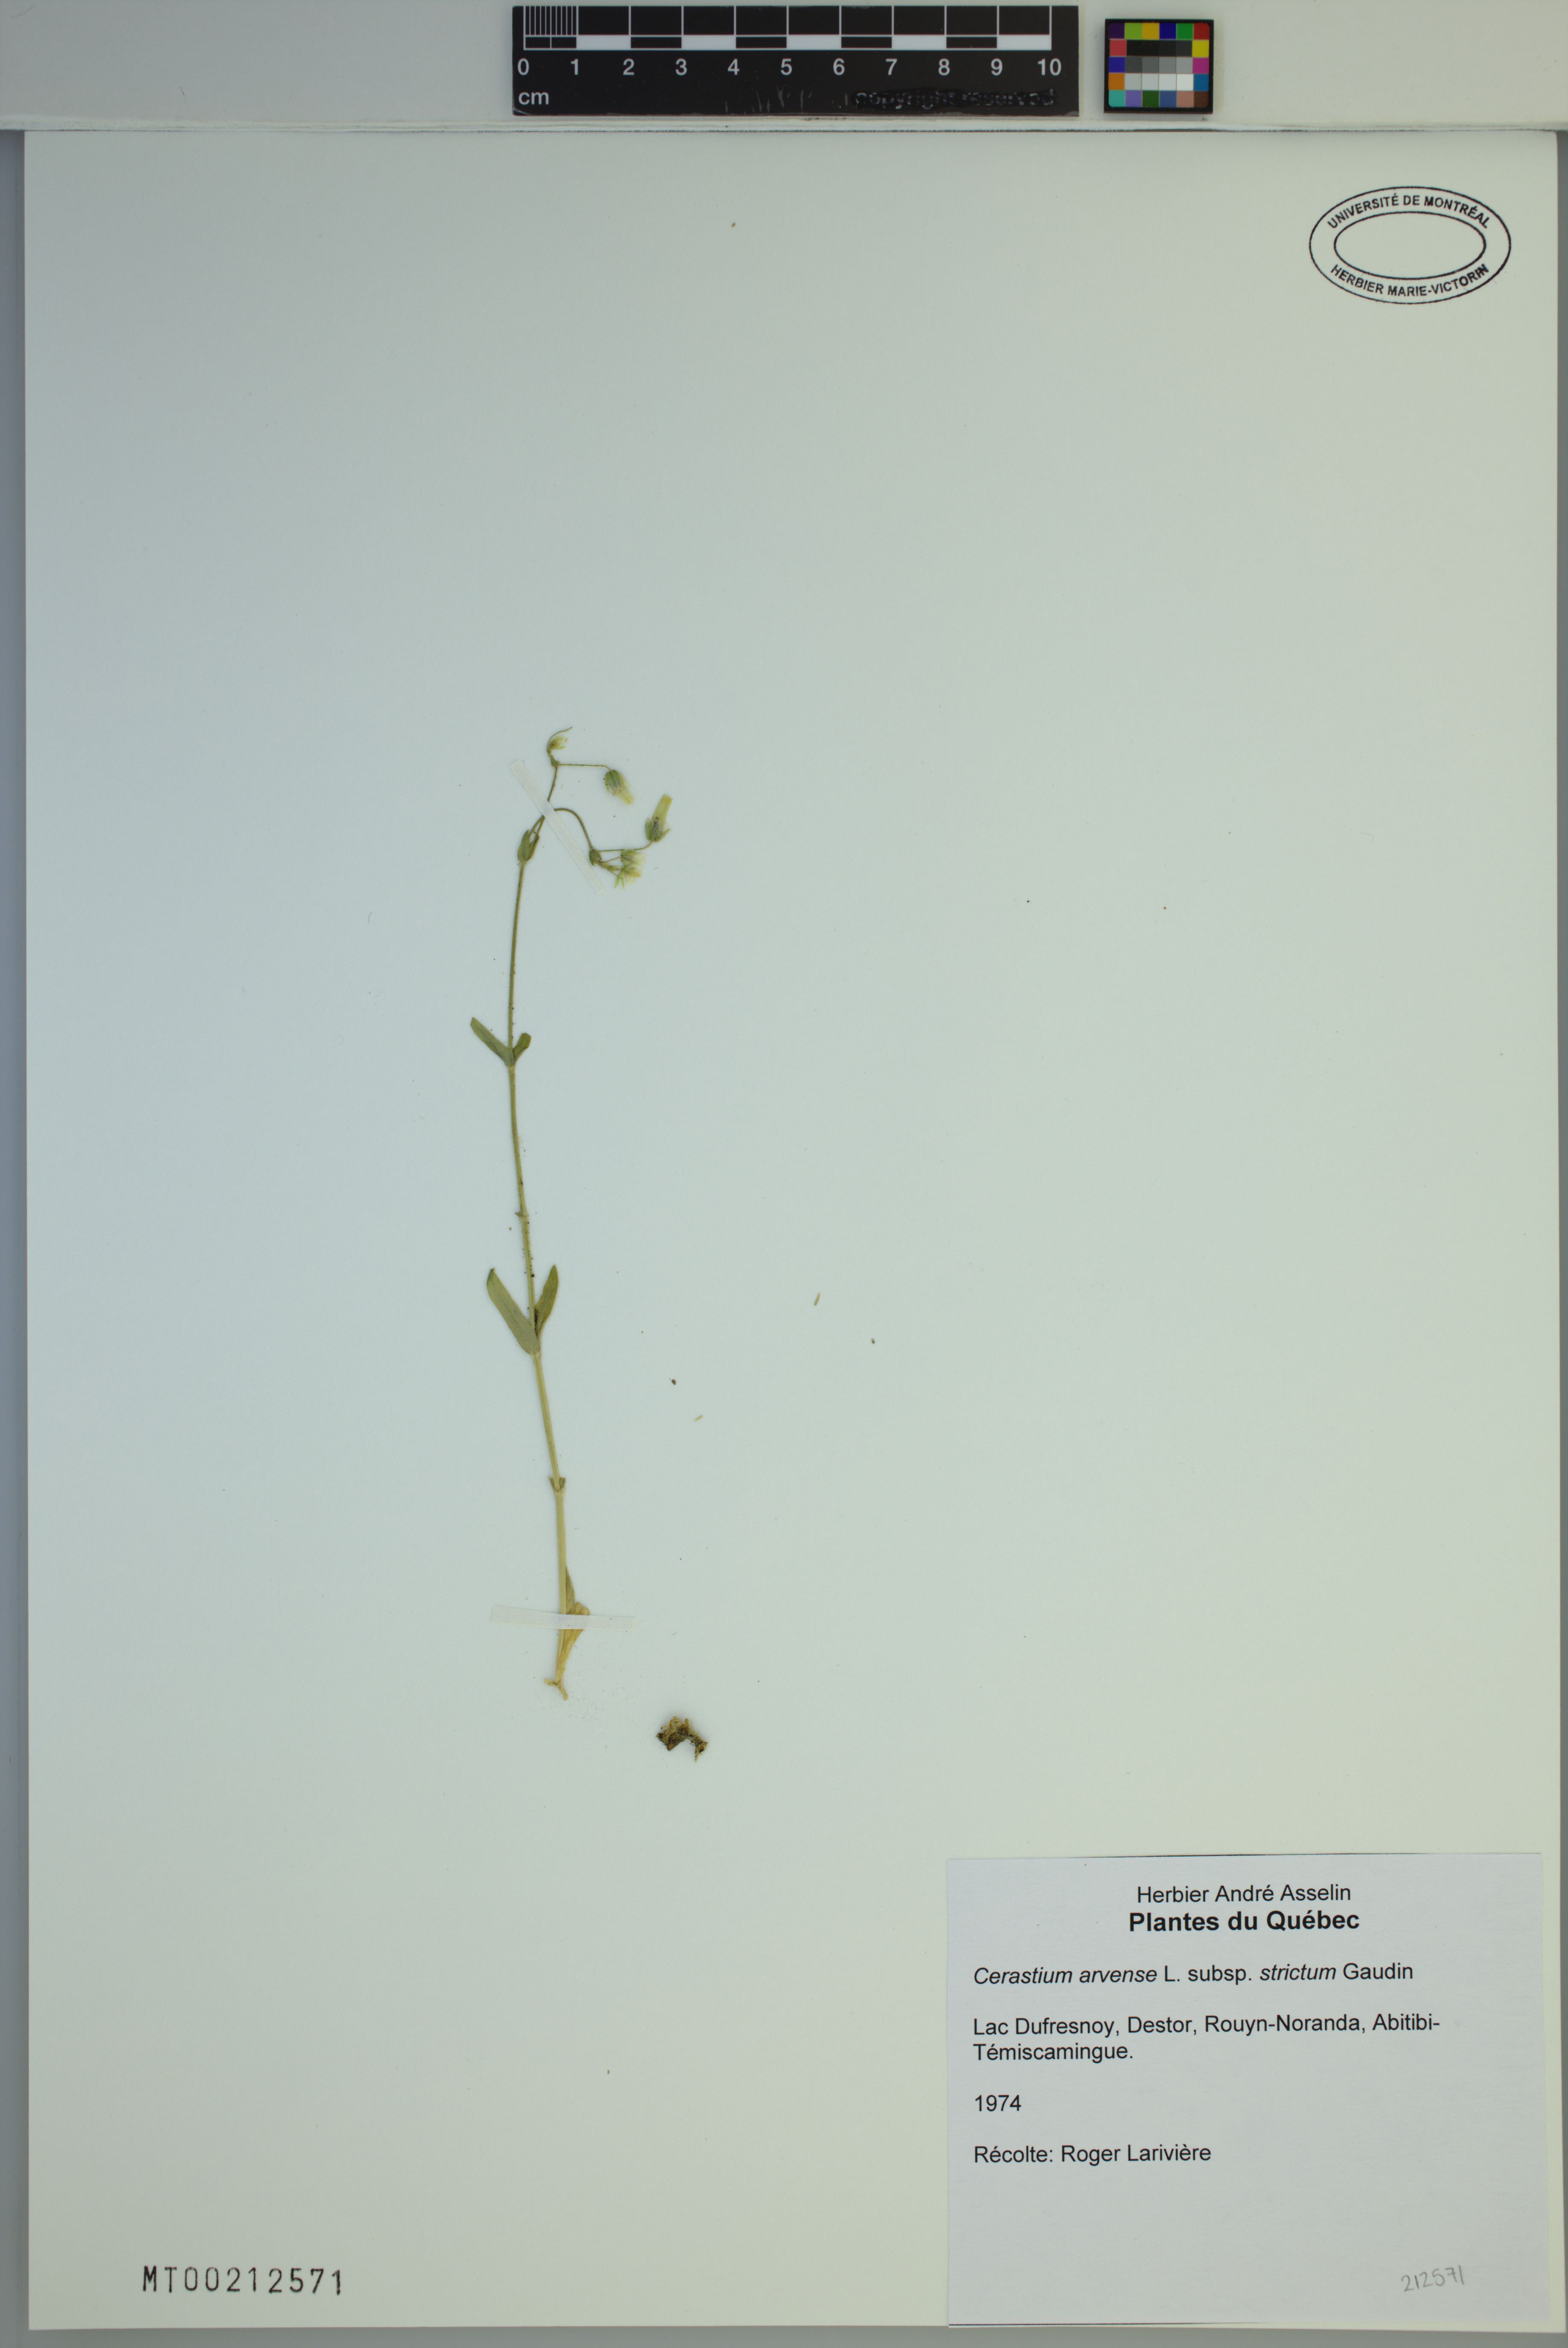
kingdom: Plantae
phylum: Tracheophyta
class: Magnoliopsida
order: Caryophyllales
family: Caryophyllaceae
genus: Cerastium
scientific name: Cerastium elongatum
